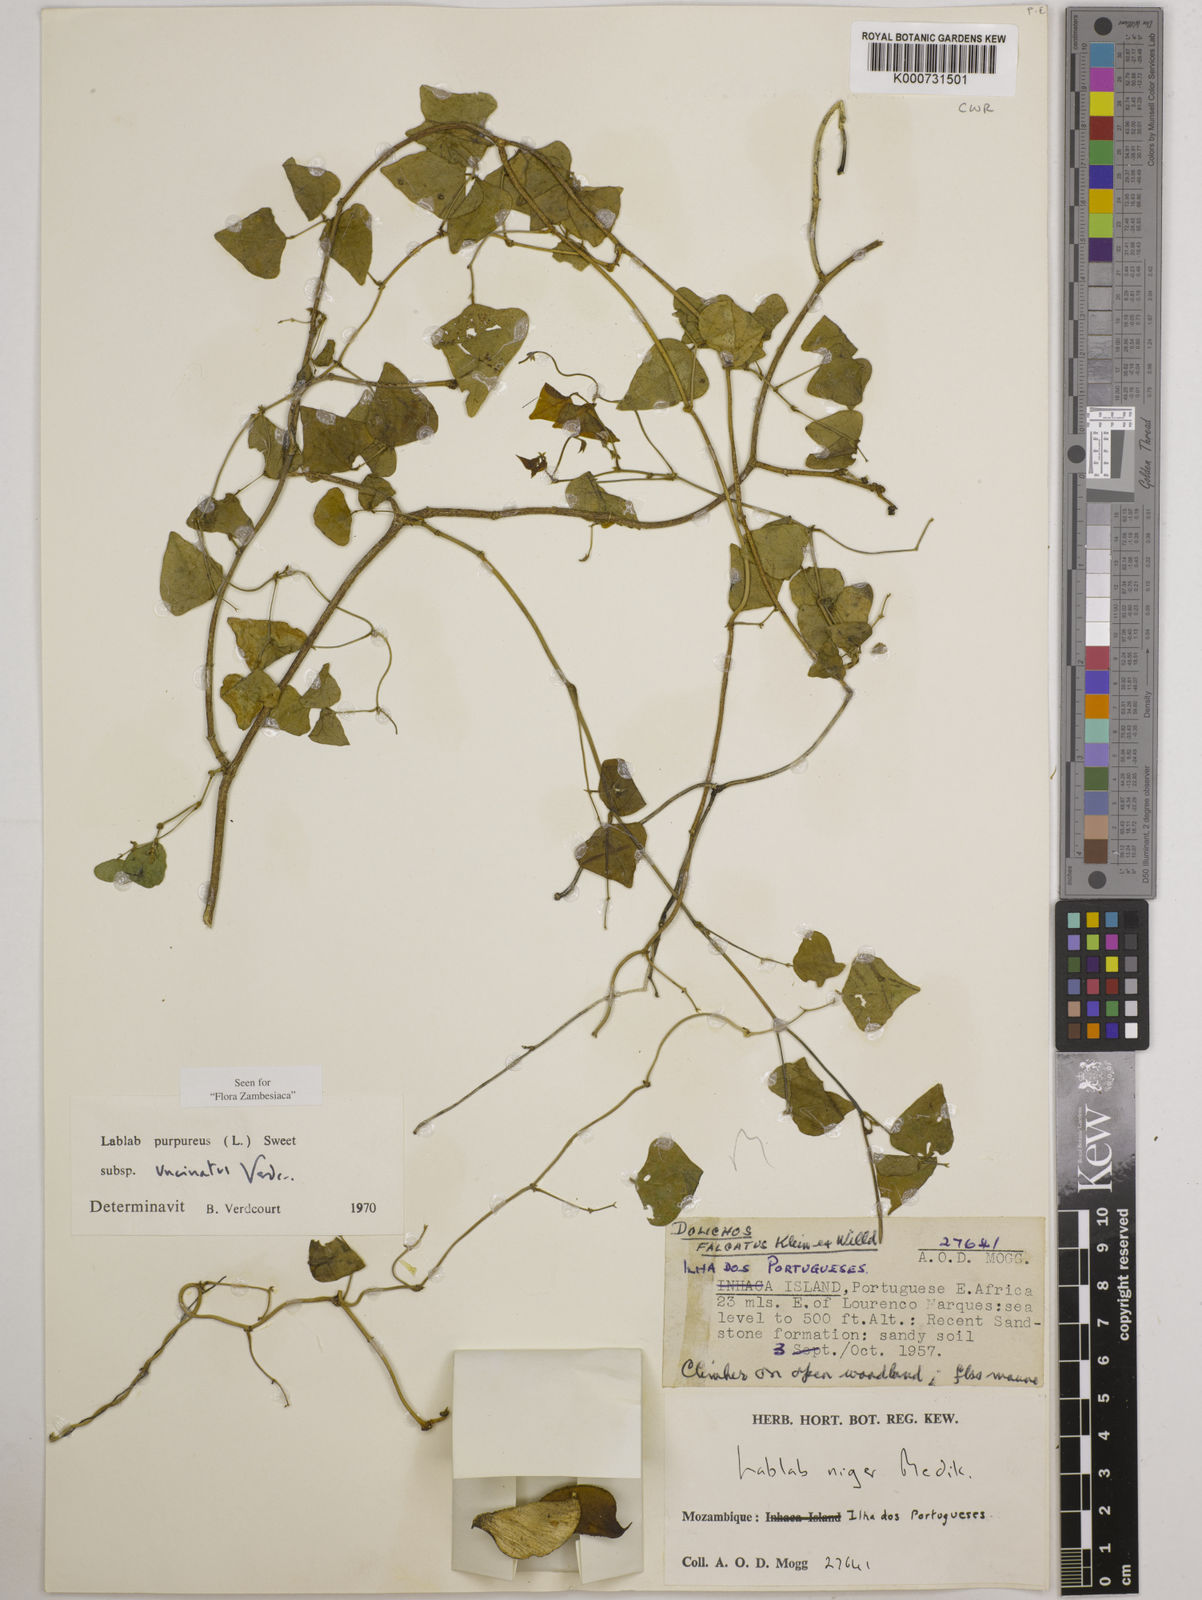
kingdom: Plantae
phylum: Tracheophyta
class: Magnoliopsida
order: Fabales
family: Fabaceae
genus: Lablab
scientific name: Lablab purpureus
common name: Lablab-bean
